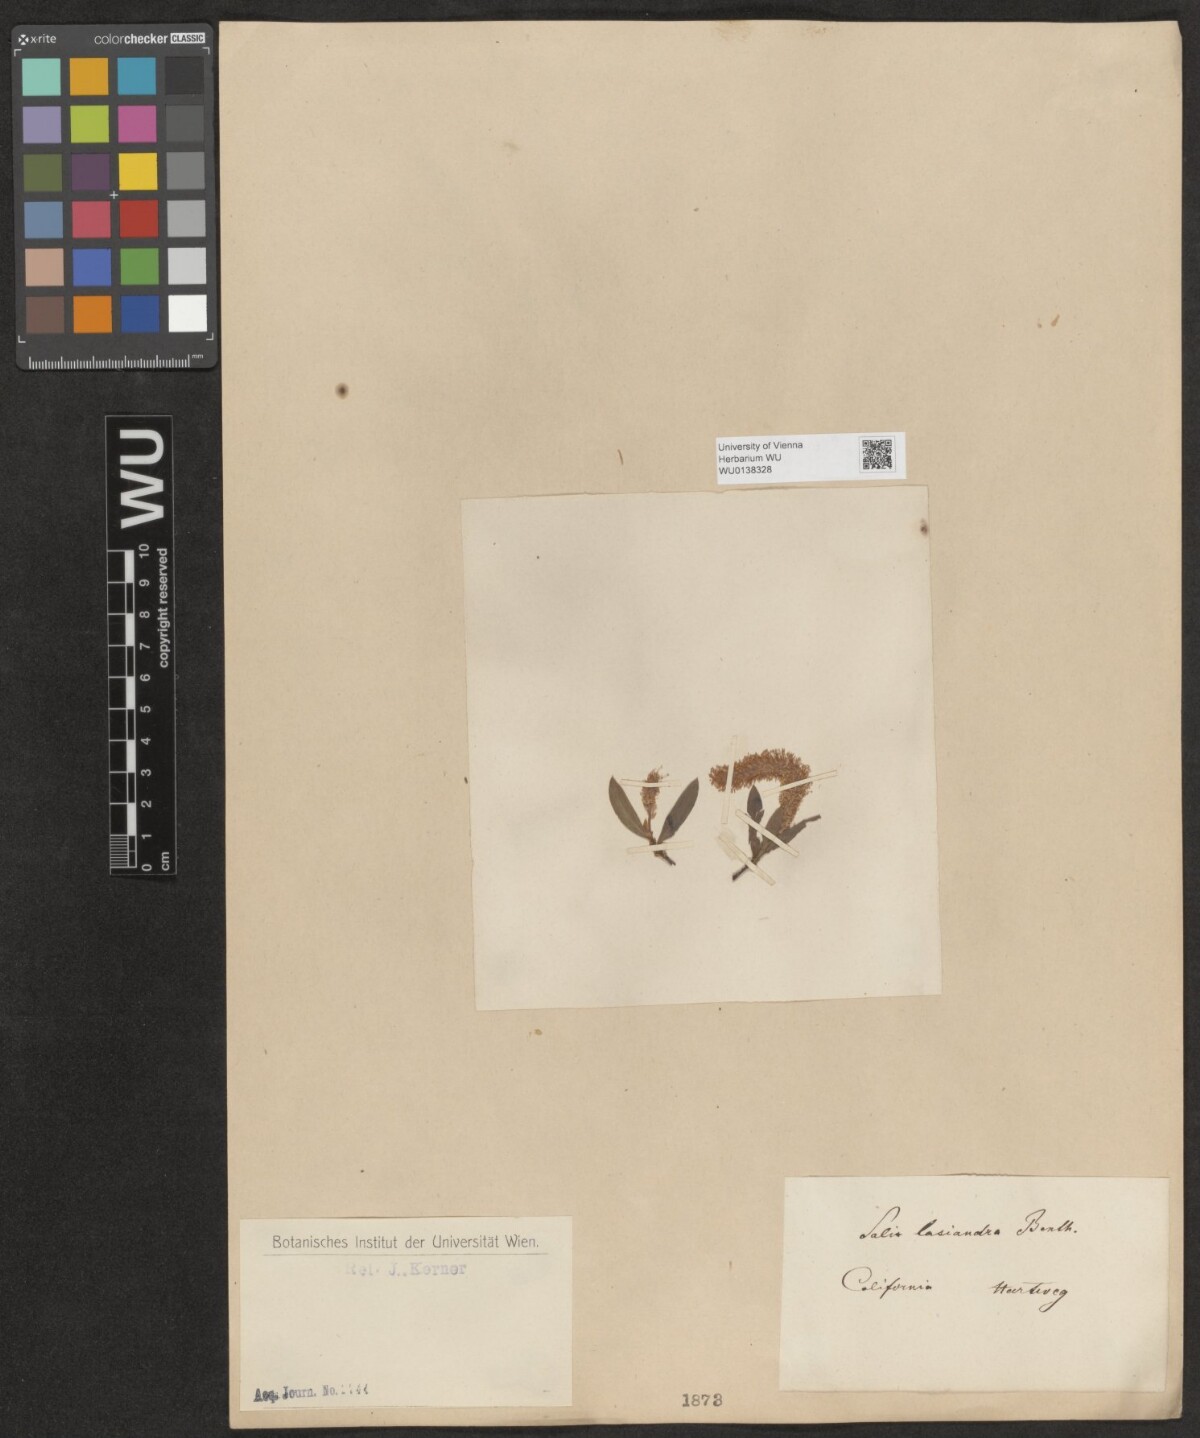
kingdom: Plantae
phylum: Tracheophyta
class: Magnoliopsida
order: Malpighiales
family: Salicaceae
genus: Salix
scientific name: Salix lucida
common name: Shining willow
